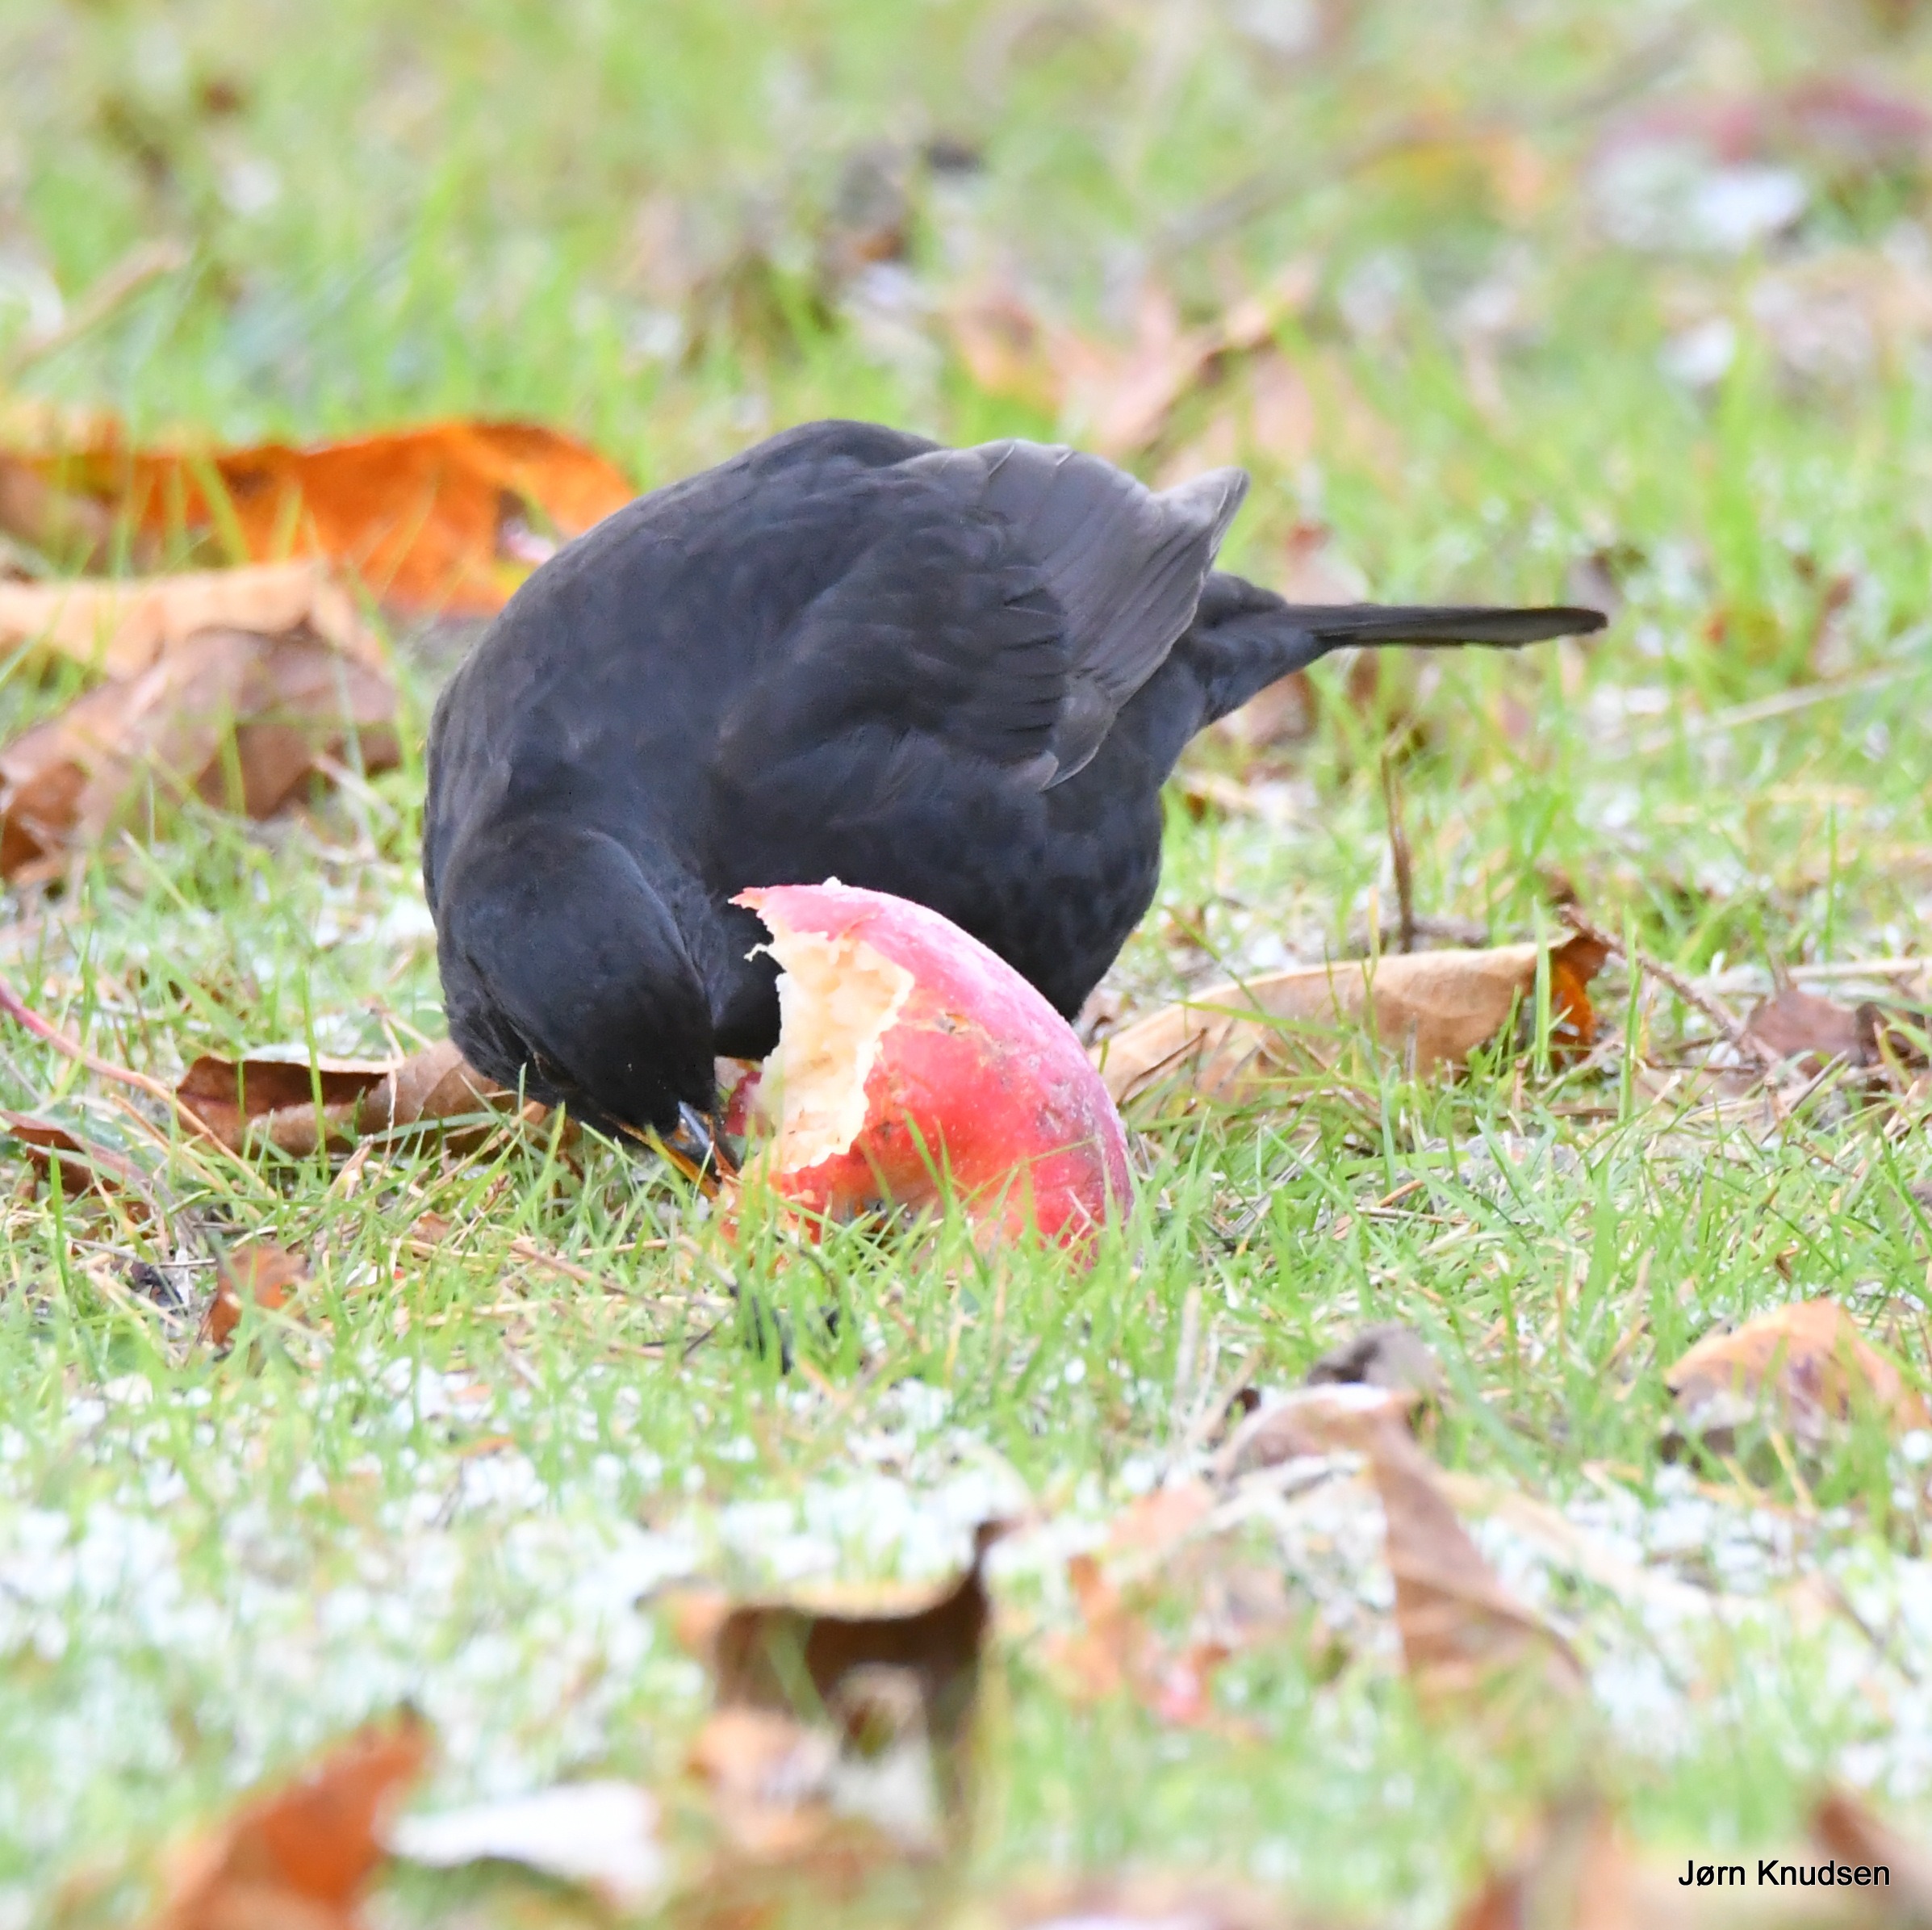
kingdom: Animalia
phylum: Chordata
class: Aves
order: Passeriformes
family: Turdidae
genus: Turdus
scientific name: Turdus merula
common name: Solsort
